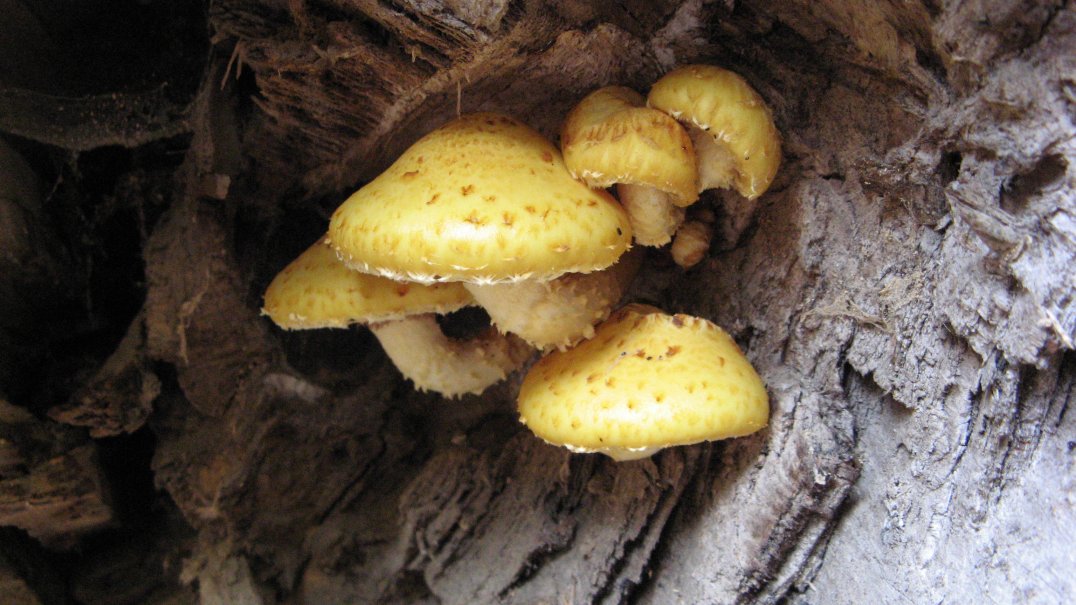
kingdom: Fungi
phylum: Basidiomycota
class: Agaricomycetes
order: Agaricales
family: Strophariaceae
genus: Pholiota
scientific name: Pholiota adiposa
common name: højtsiddende skælhat
